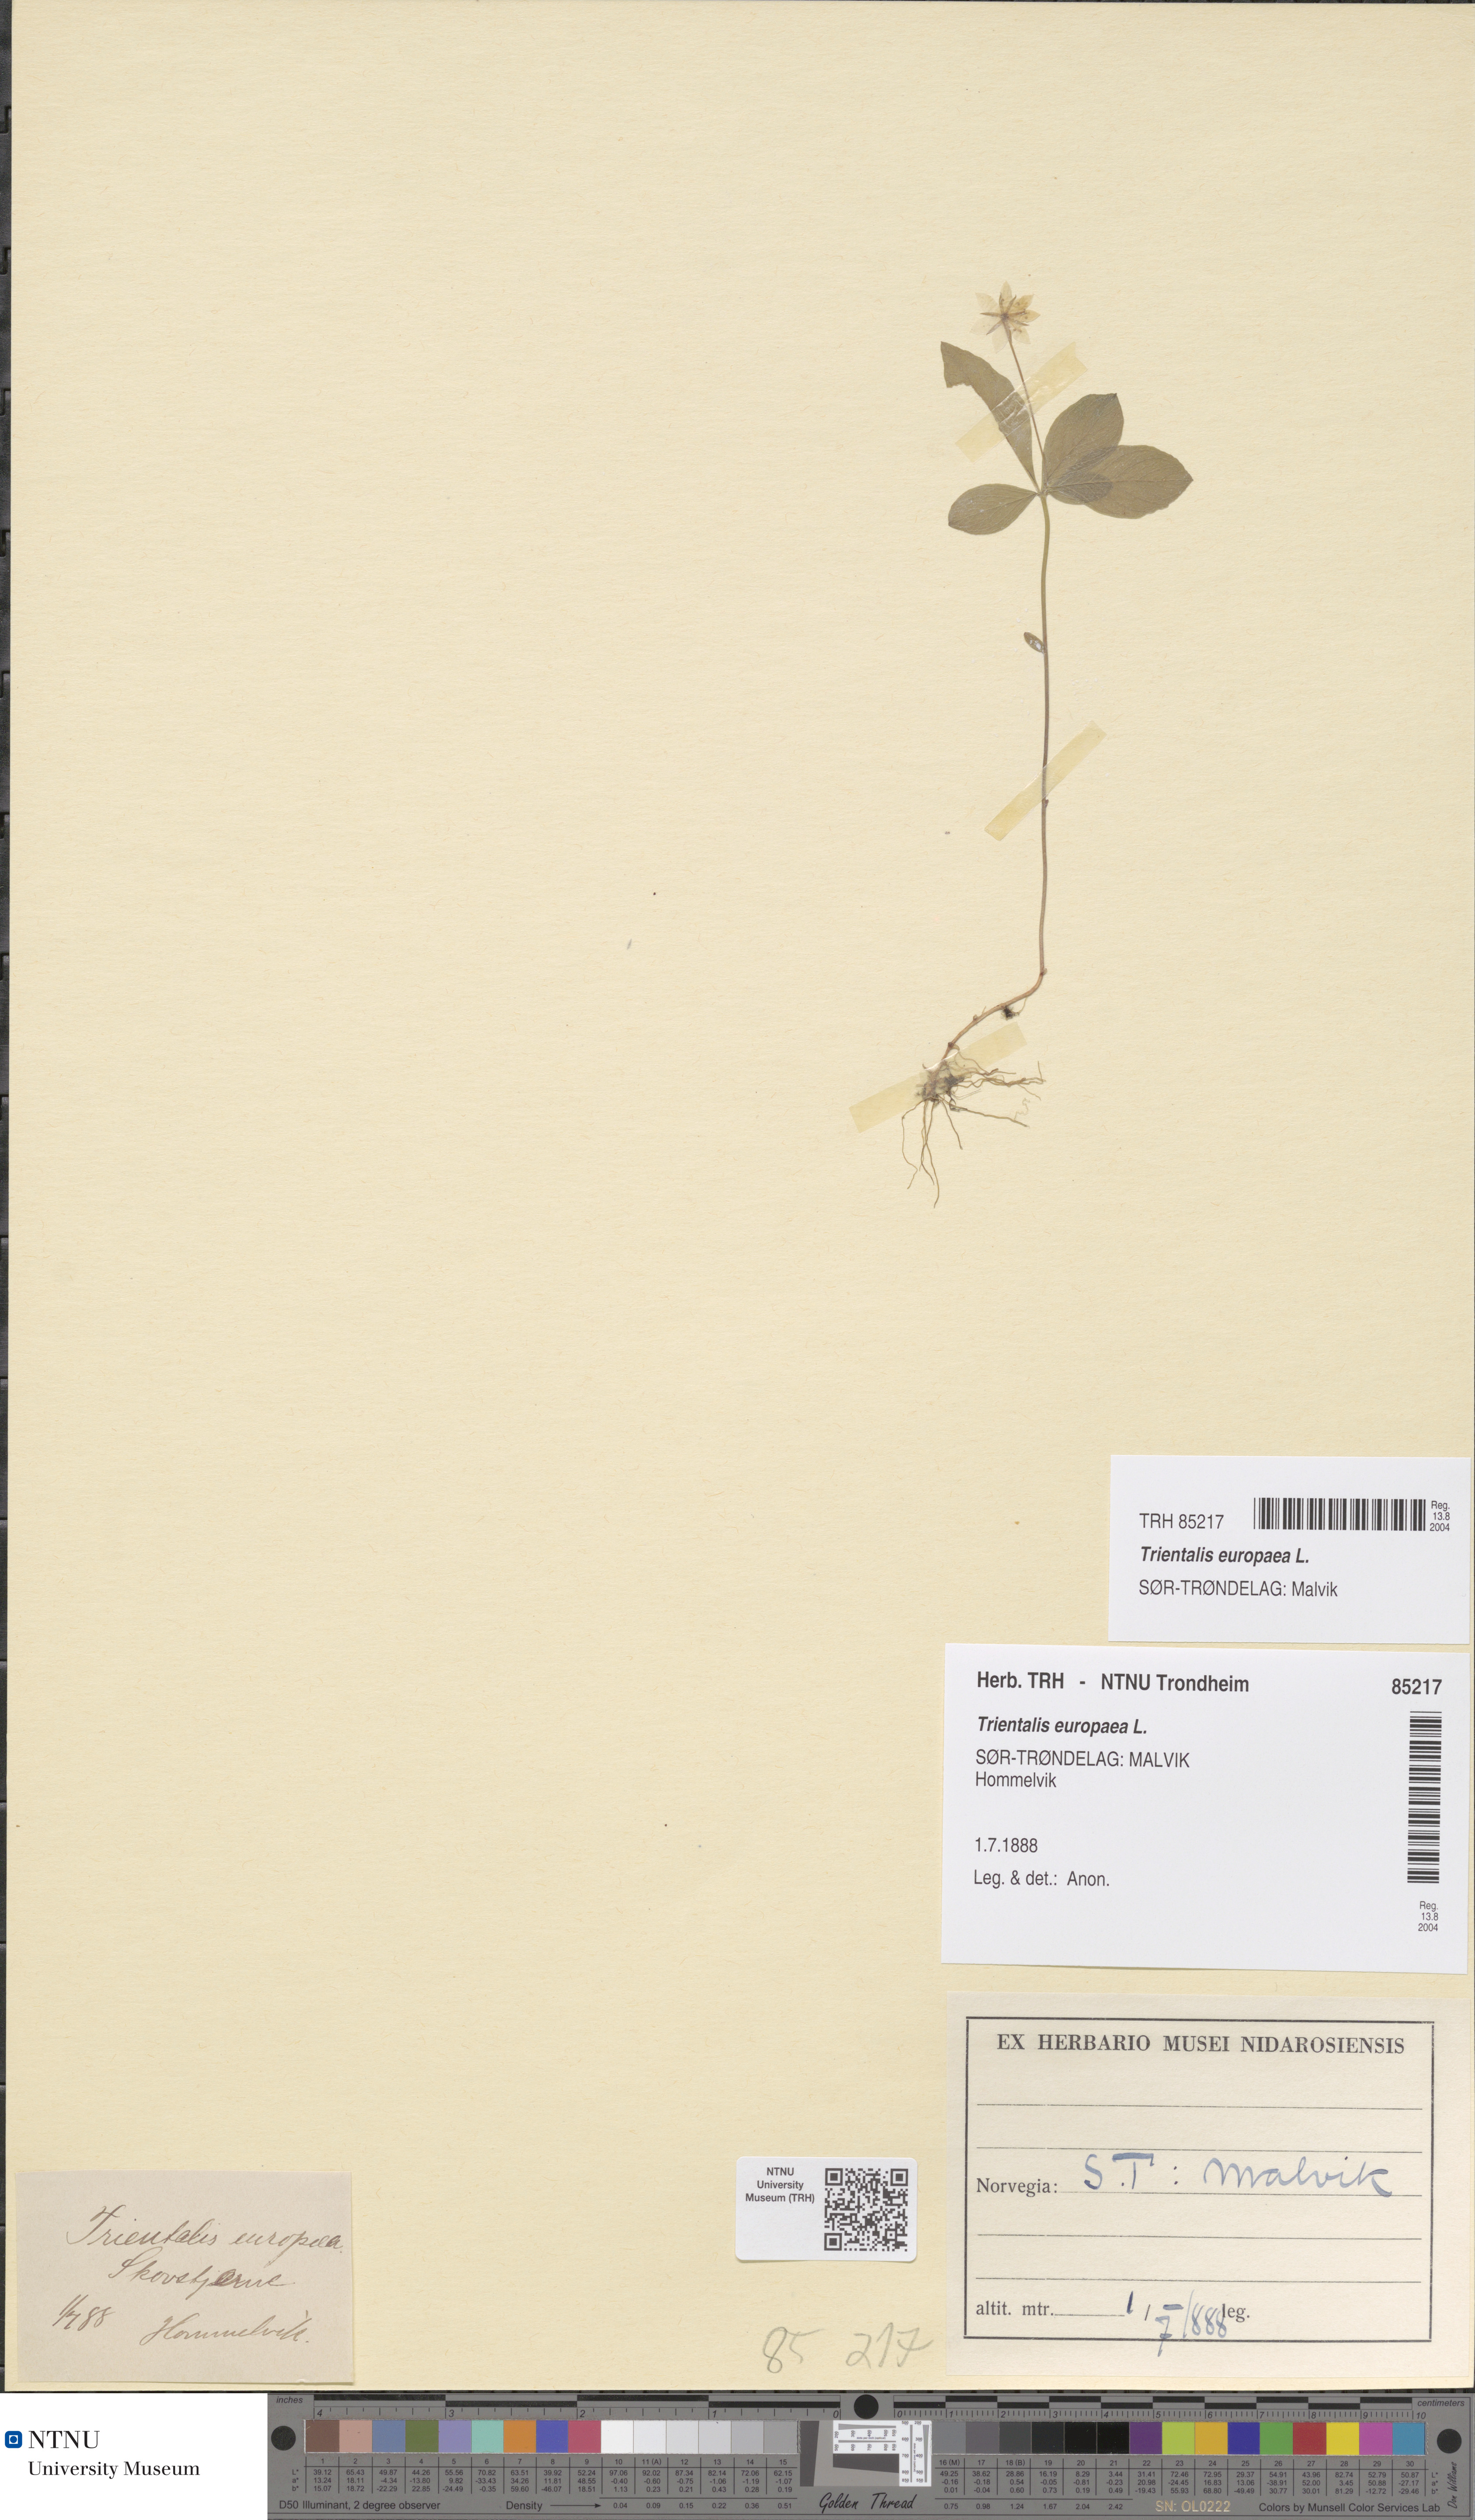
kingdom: Plantae
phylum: Tracheophyta
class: Magnoliopsida
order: Ericales
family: Primulaceae
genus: Lysimachia
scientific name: Lysimachia europaea
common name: Arctic starflower
